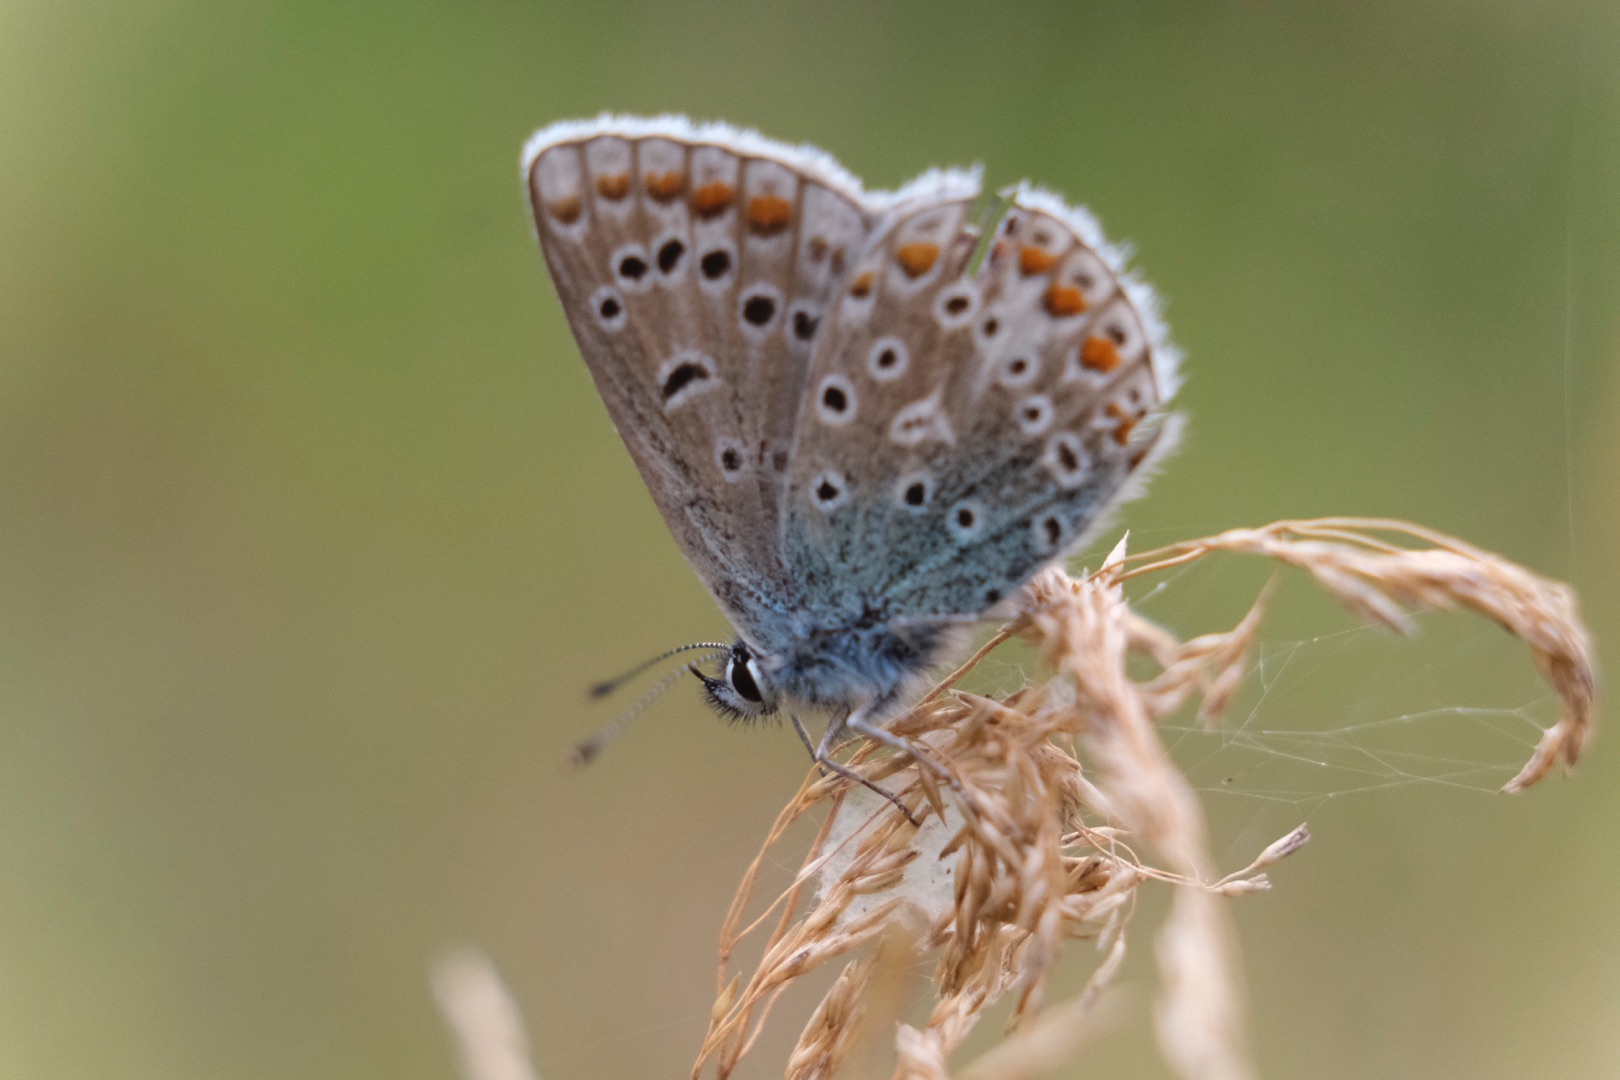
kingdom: Animalia
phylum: Arthropoda
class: Insecta
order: Lepidoptera
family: Lycaenidae
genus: Polyommatus
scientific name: Polyommatus icarus
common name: Almindelig blåfugl
